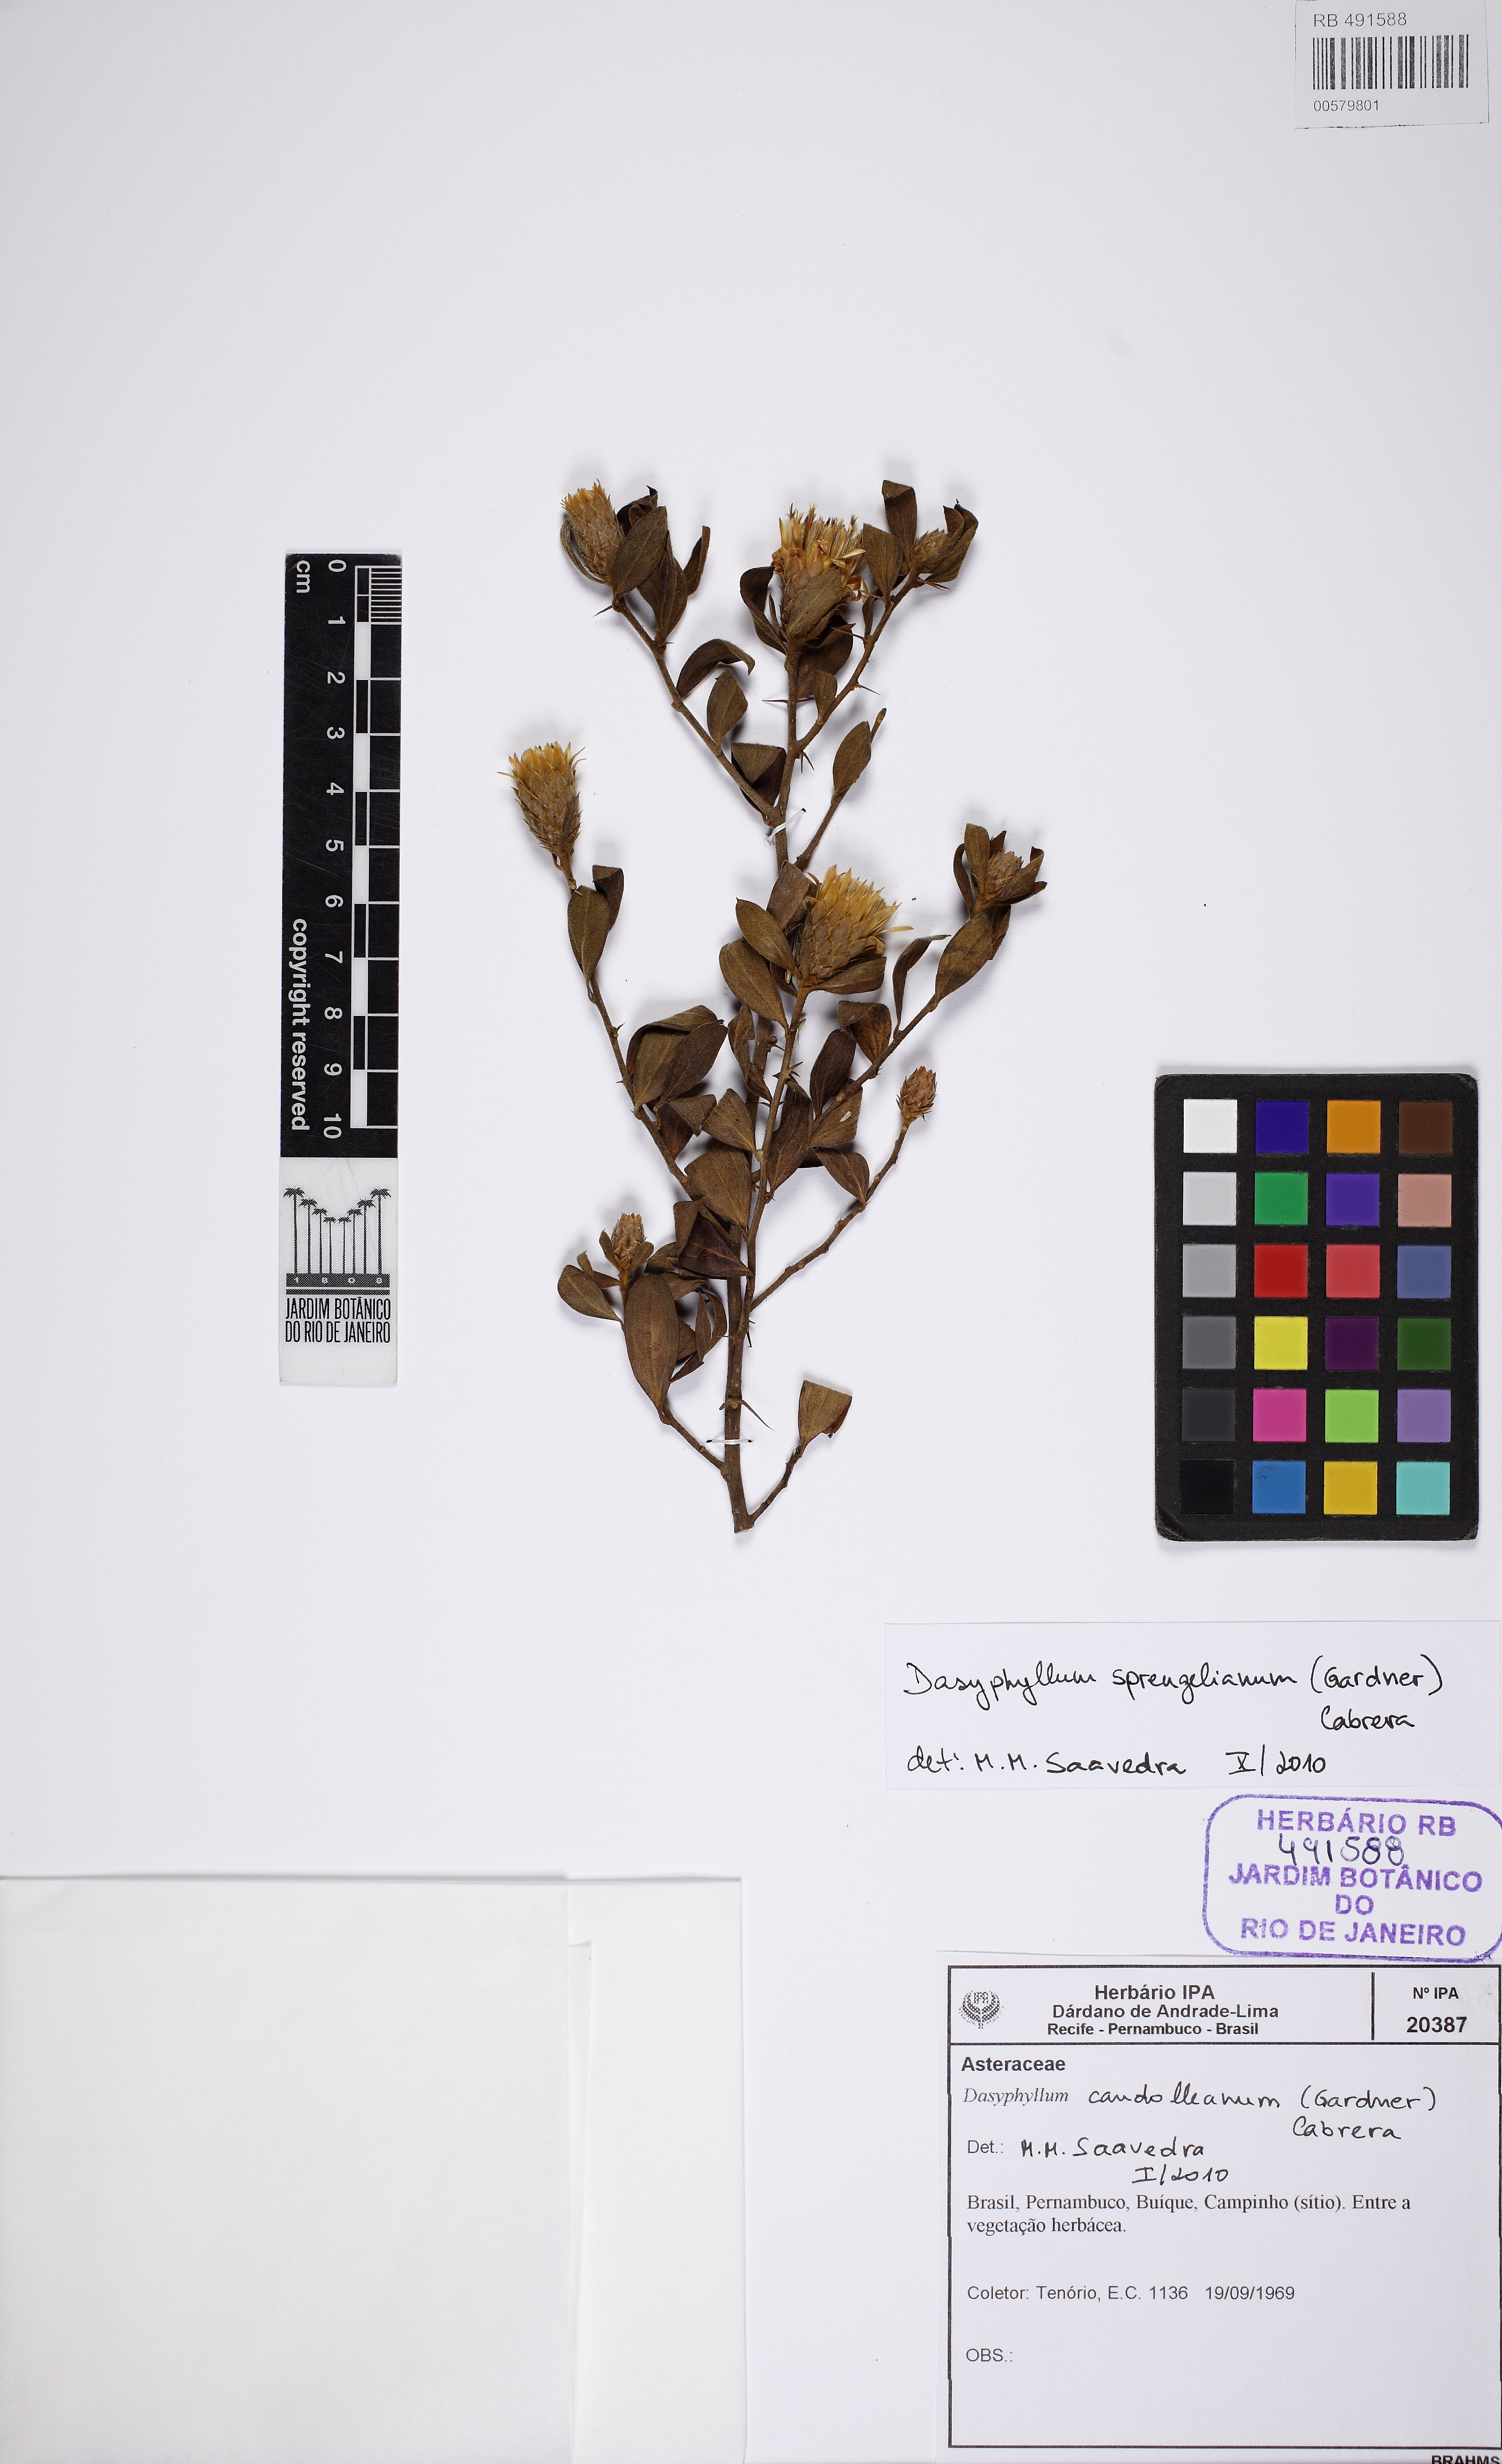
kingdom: Plantae
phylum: Tracheophyta
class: Magnoliopsida
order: Asterales
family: Asteraceae
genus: Dasyphyllum
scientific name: Dasyphyllum sprengelianum
